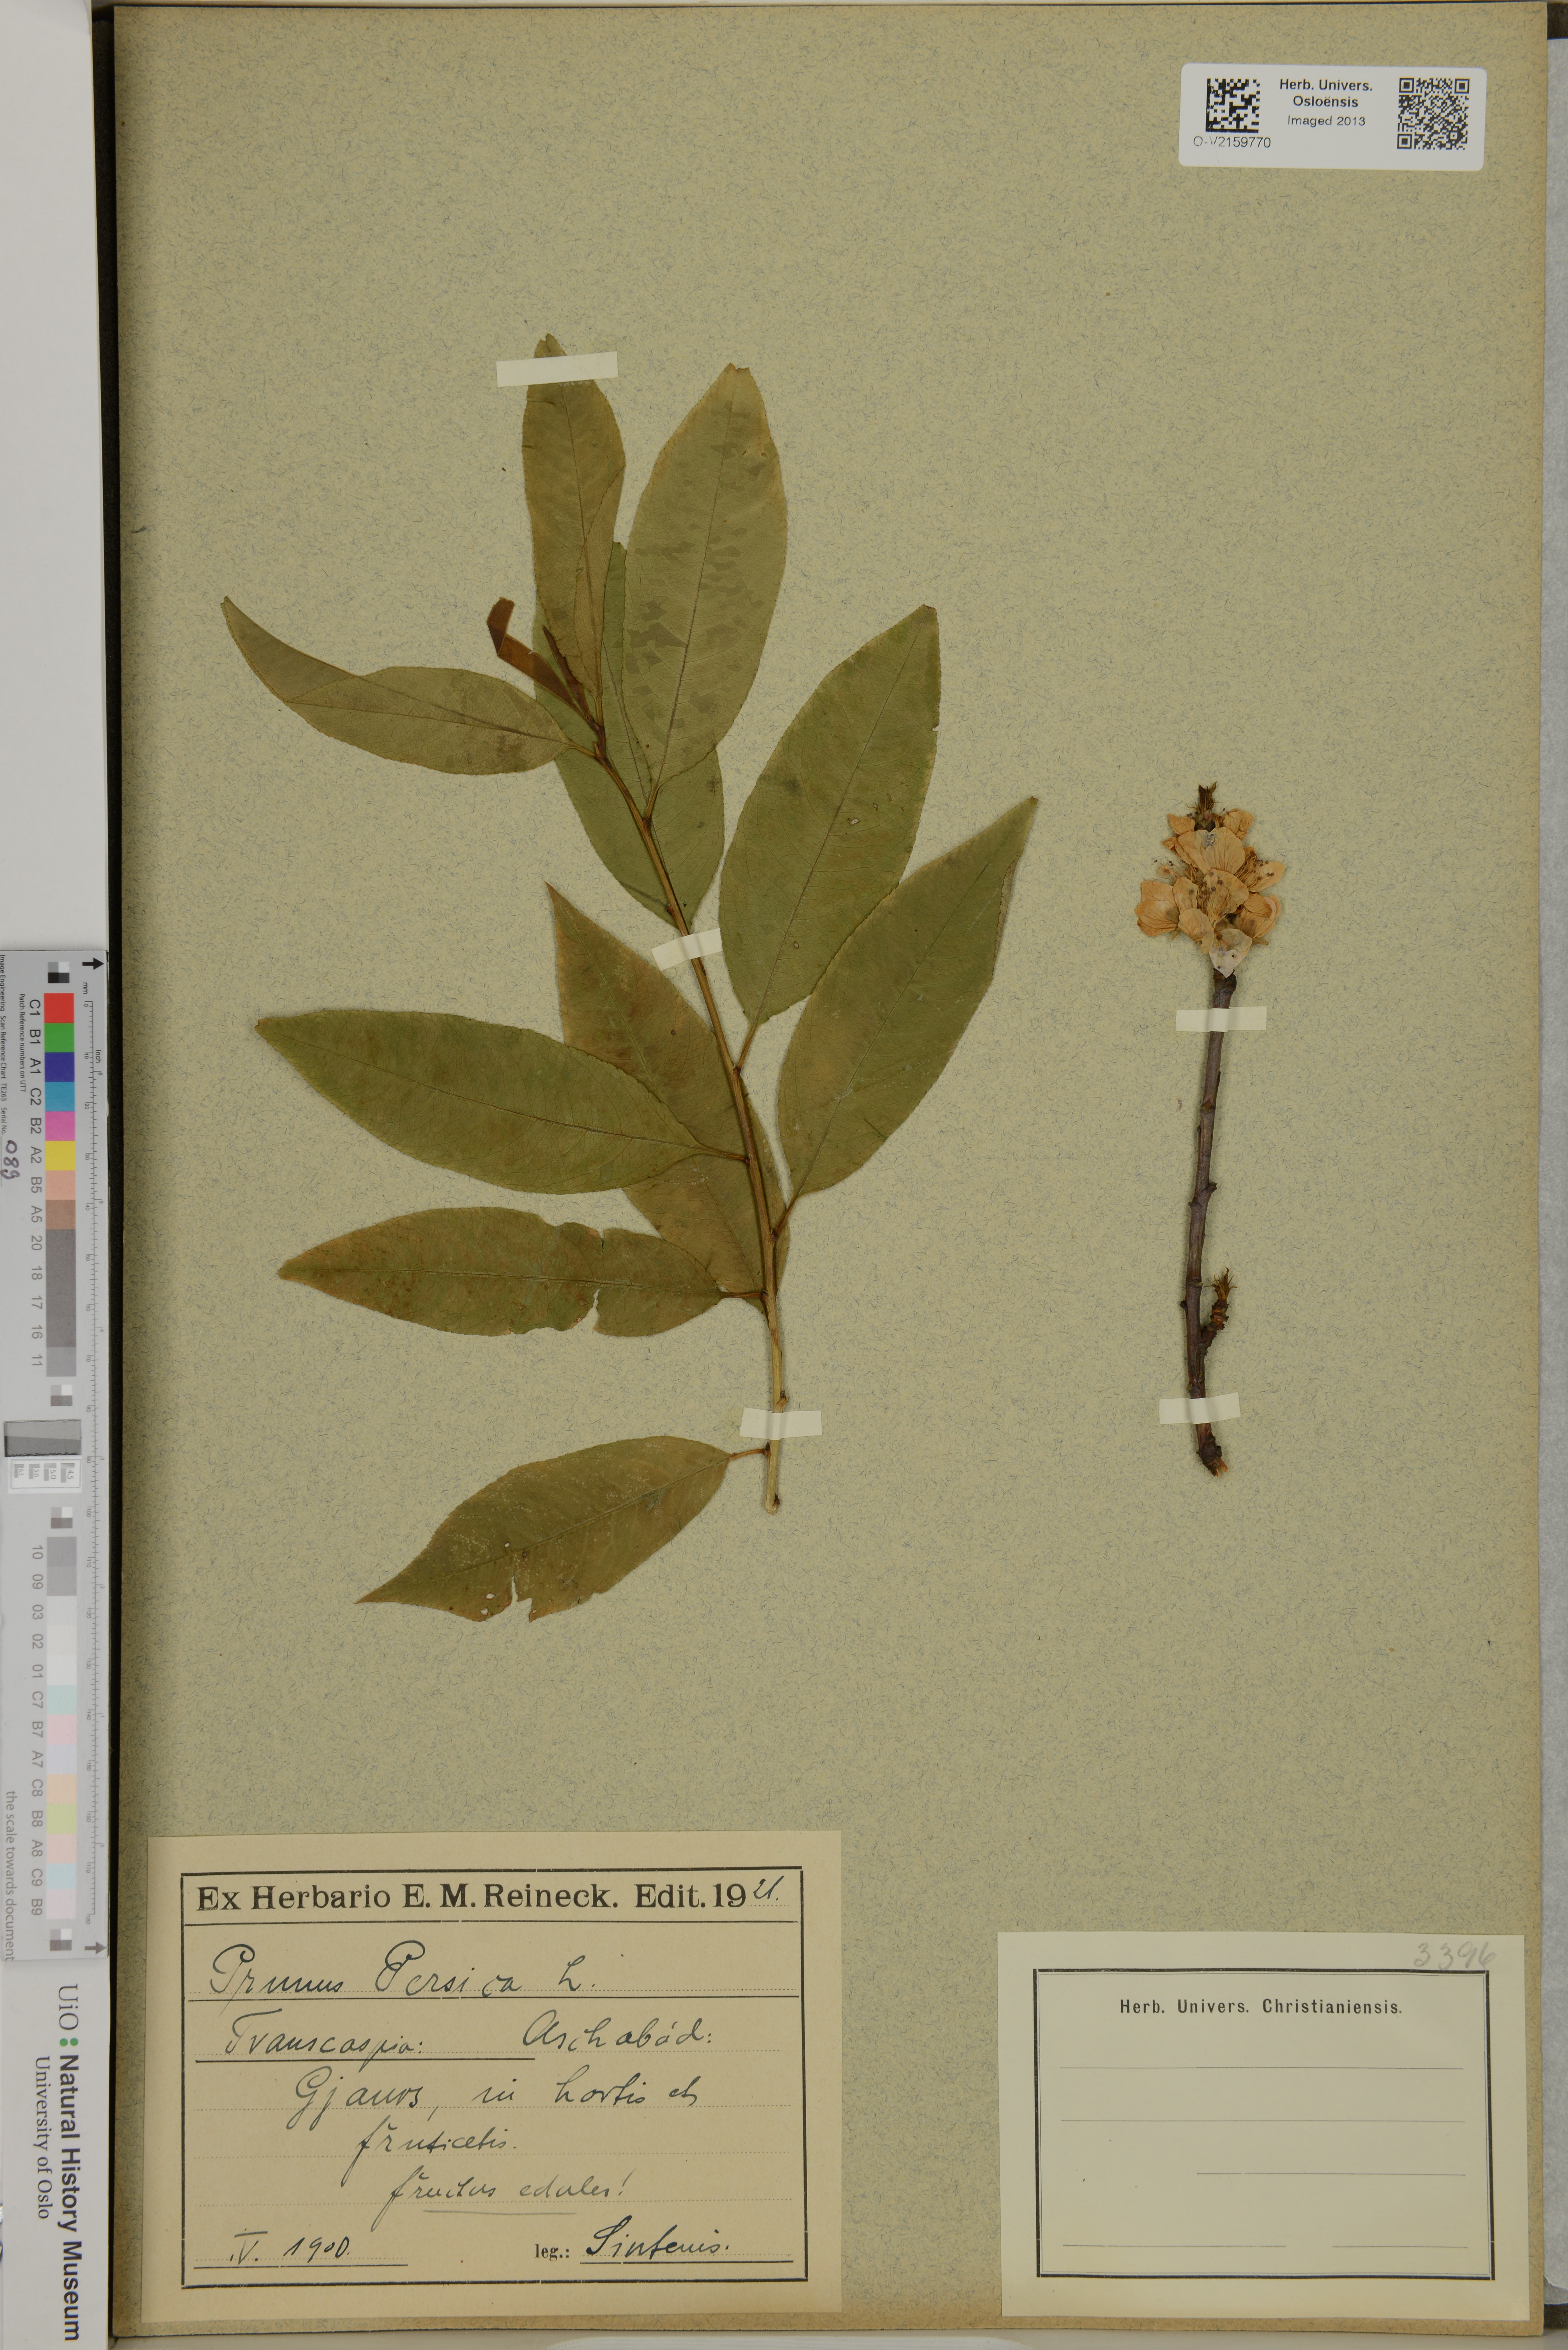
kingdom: Plantae
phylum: Tracheophyta
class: Magnoliopsida
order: Rosales
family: Rosaceae
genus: Prunus
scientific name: Prunus persica
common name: Peach
